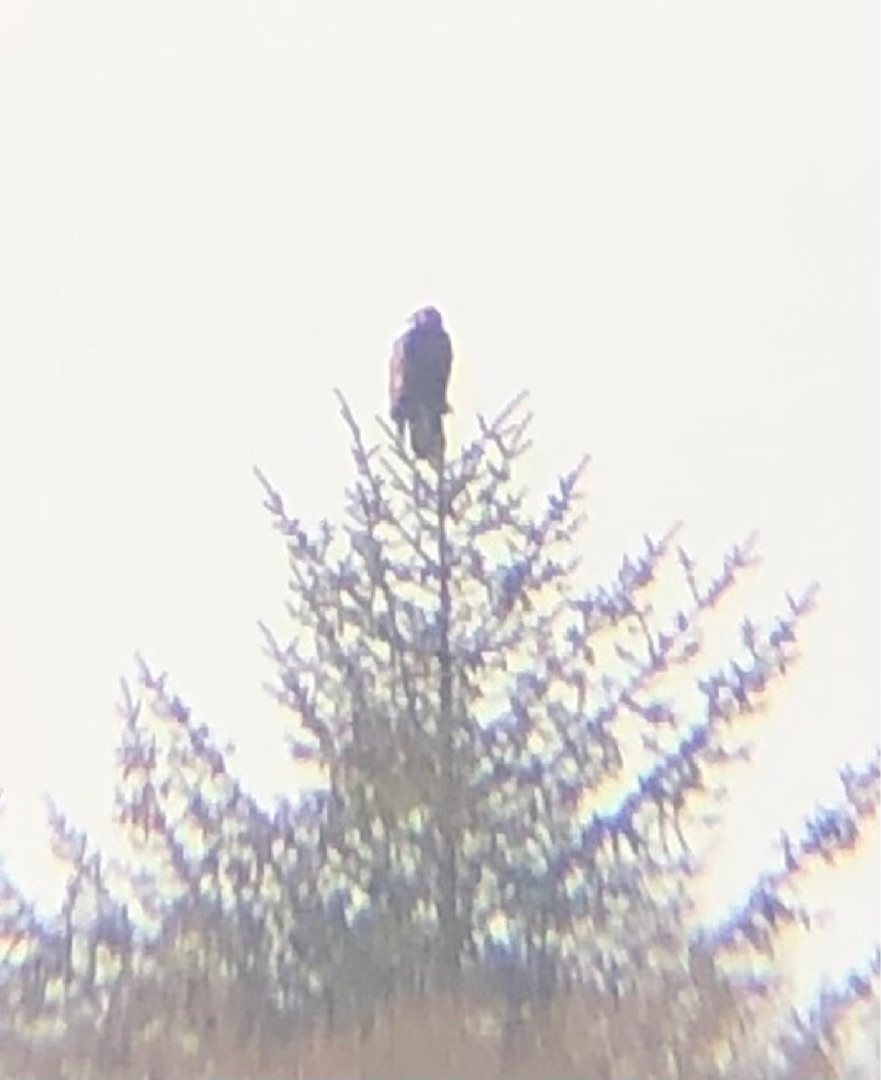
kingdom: Animalia
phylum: Chordata
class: Aves
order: Accipitriformes
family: Accipitridae
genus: Aquila
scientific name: Aquila chrysaetos
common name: Kongeørn
